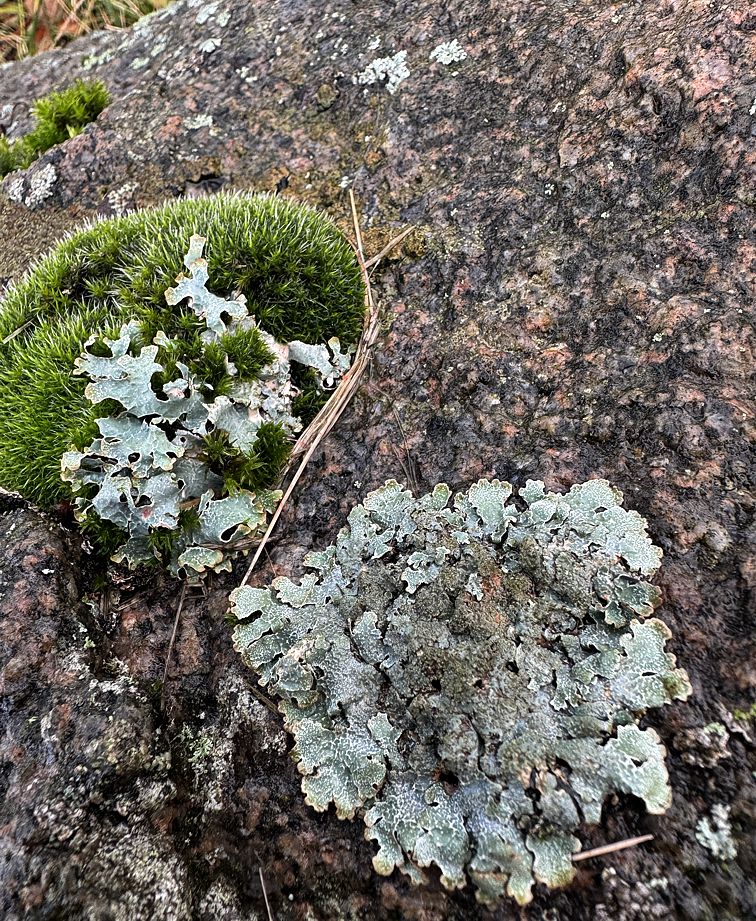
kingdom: Fungi
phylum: Ascomycota
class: Lecanoromycetes
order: Lecanorales
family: Parmeliaceae
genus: Parmelia
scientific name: Parmelia saxatilis
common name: farve-skållav
